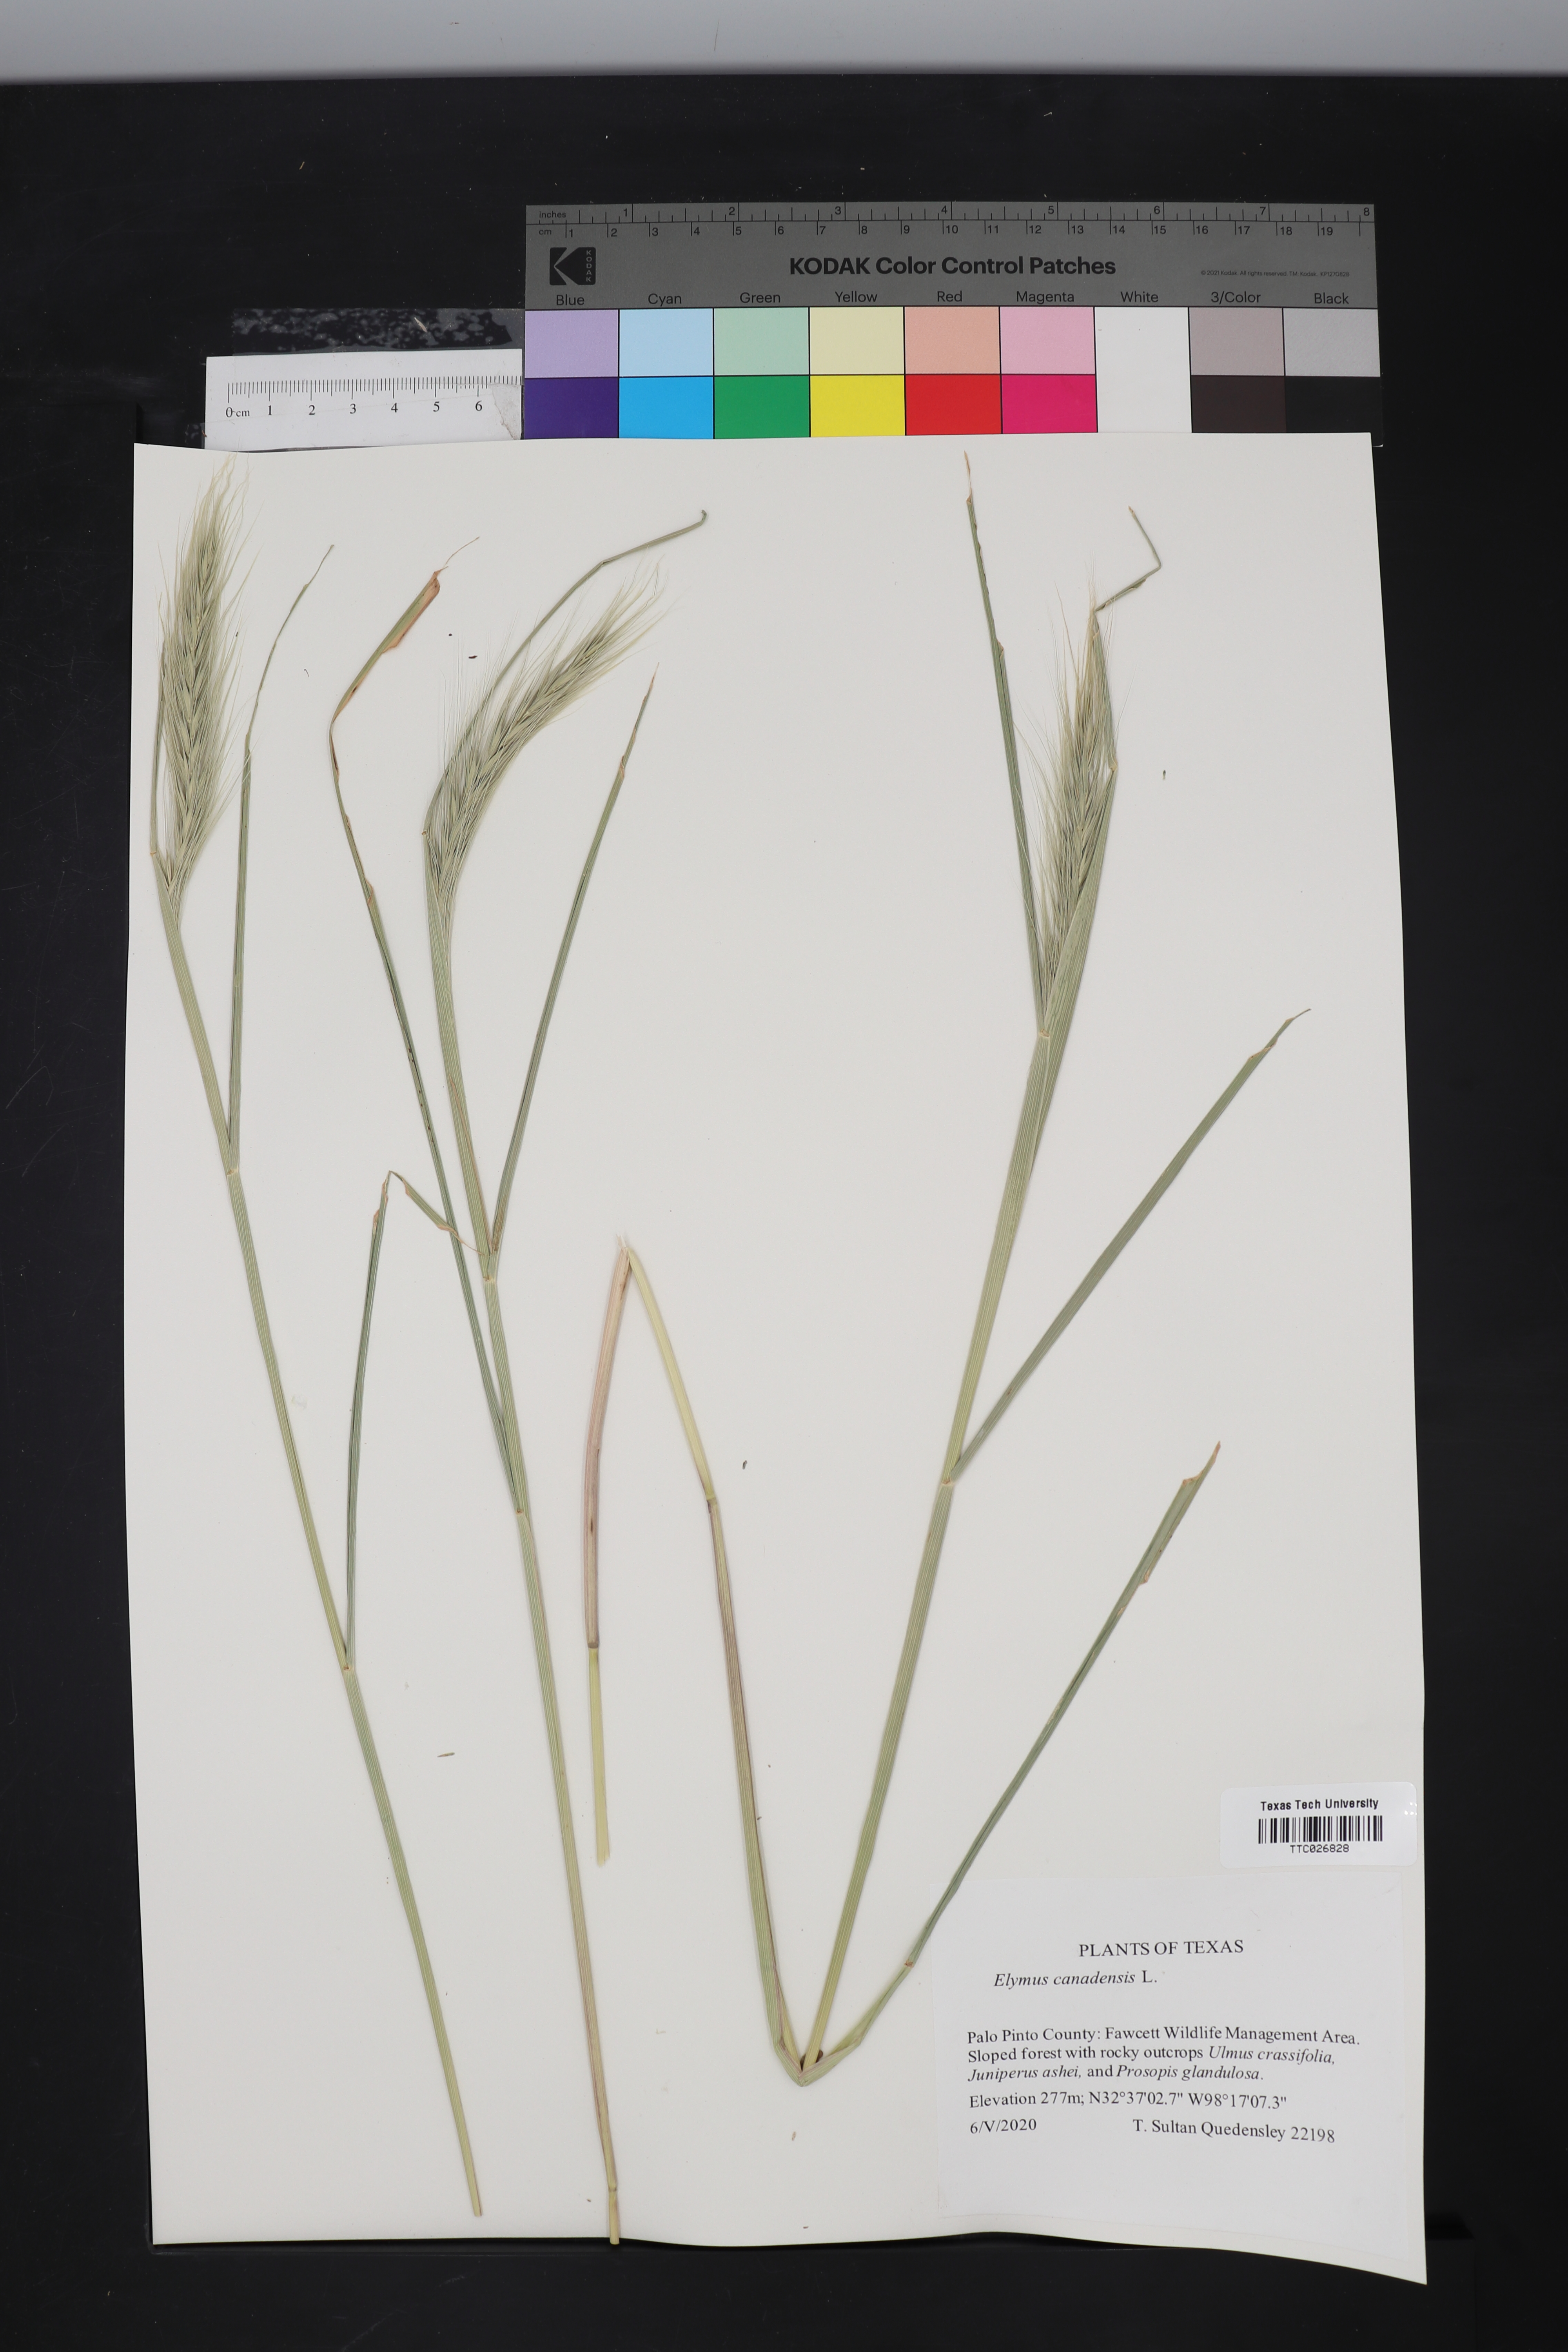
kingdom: Plantae
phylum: Tracheophyta
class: Liliopsida
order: Poales
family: Poaceae
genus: Elymus
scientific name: Elymus canadensis
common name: Canada wild rye
